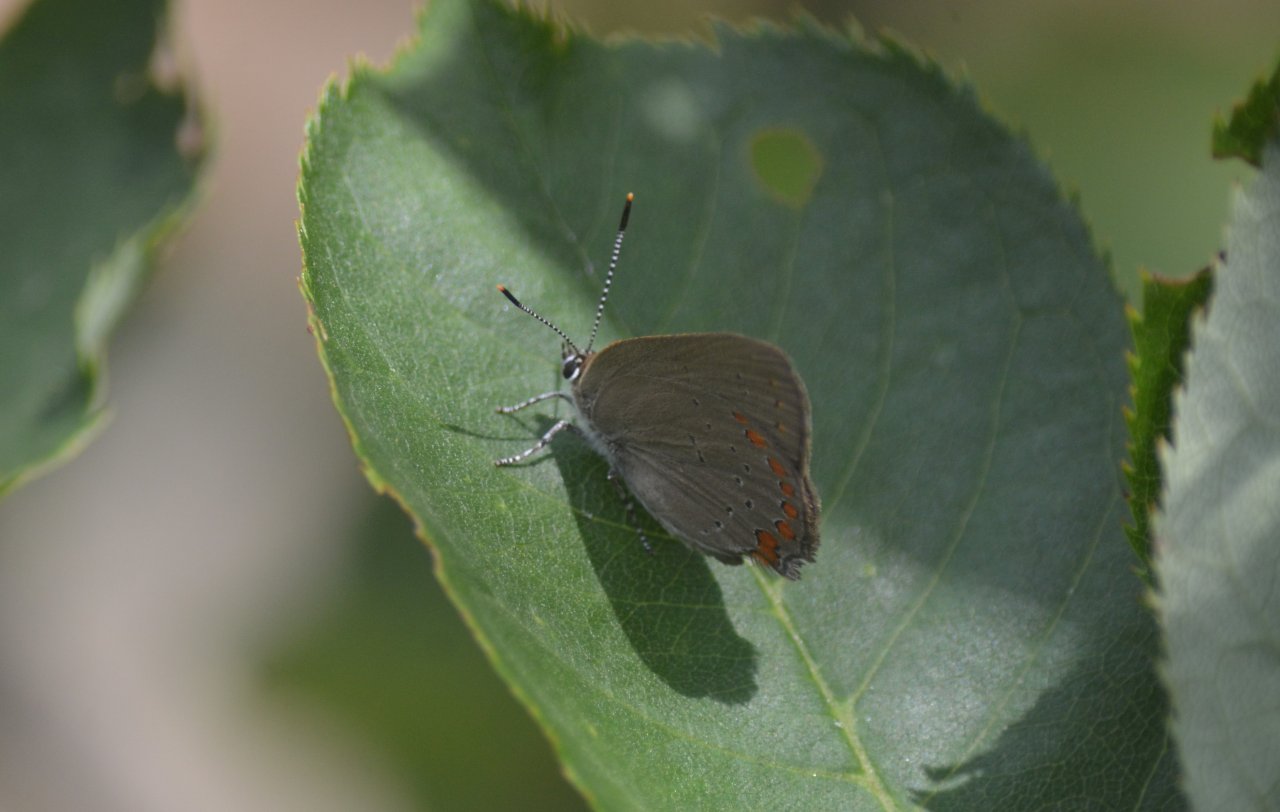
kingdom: Animalia
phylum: Arthropoda
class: Insecta
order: Lepidoptera
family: Lycaenidae
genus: Harkenclenus
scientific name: Harkenclenus titus
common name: Coral Hairstreak
